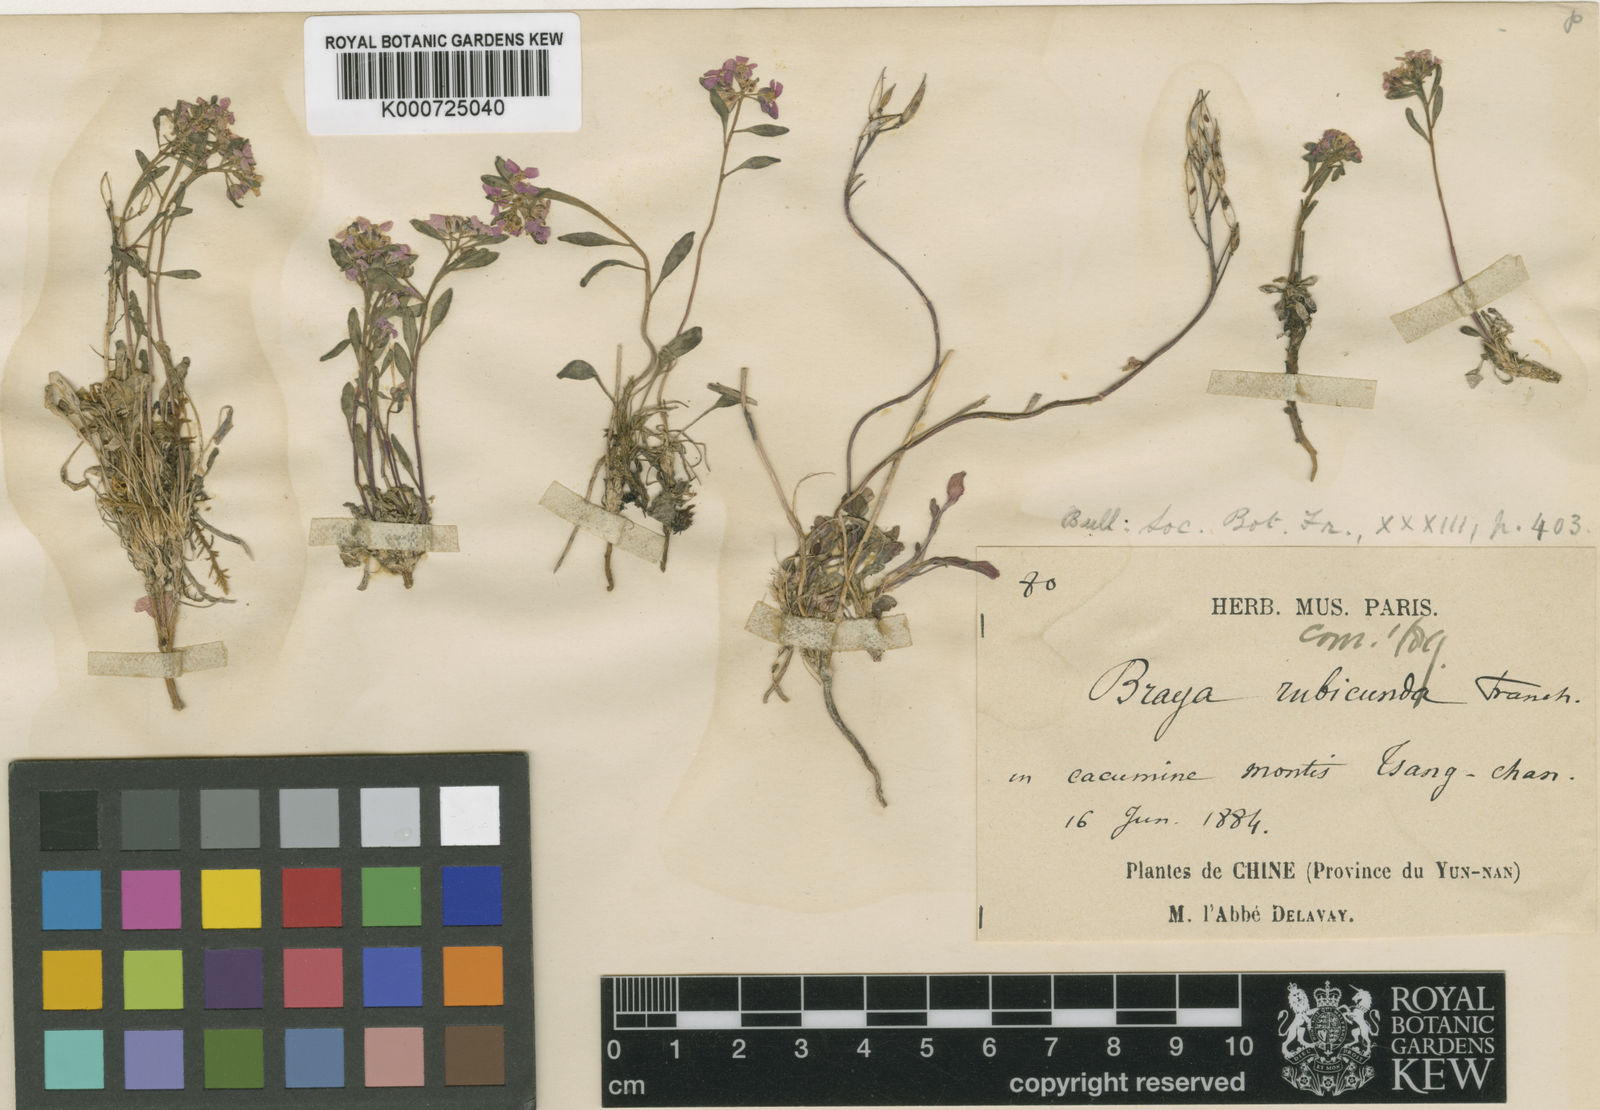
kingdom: Plantae
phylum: Tracheophyta
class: Magnoliopsida
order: Brassicales
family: Brassicaceae
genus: Aphragmus
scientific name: Aphragmus oxycarpus
